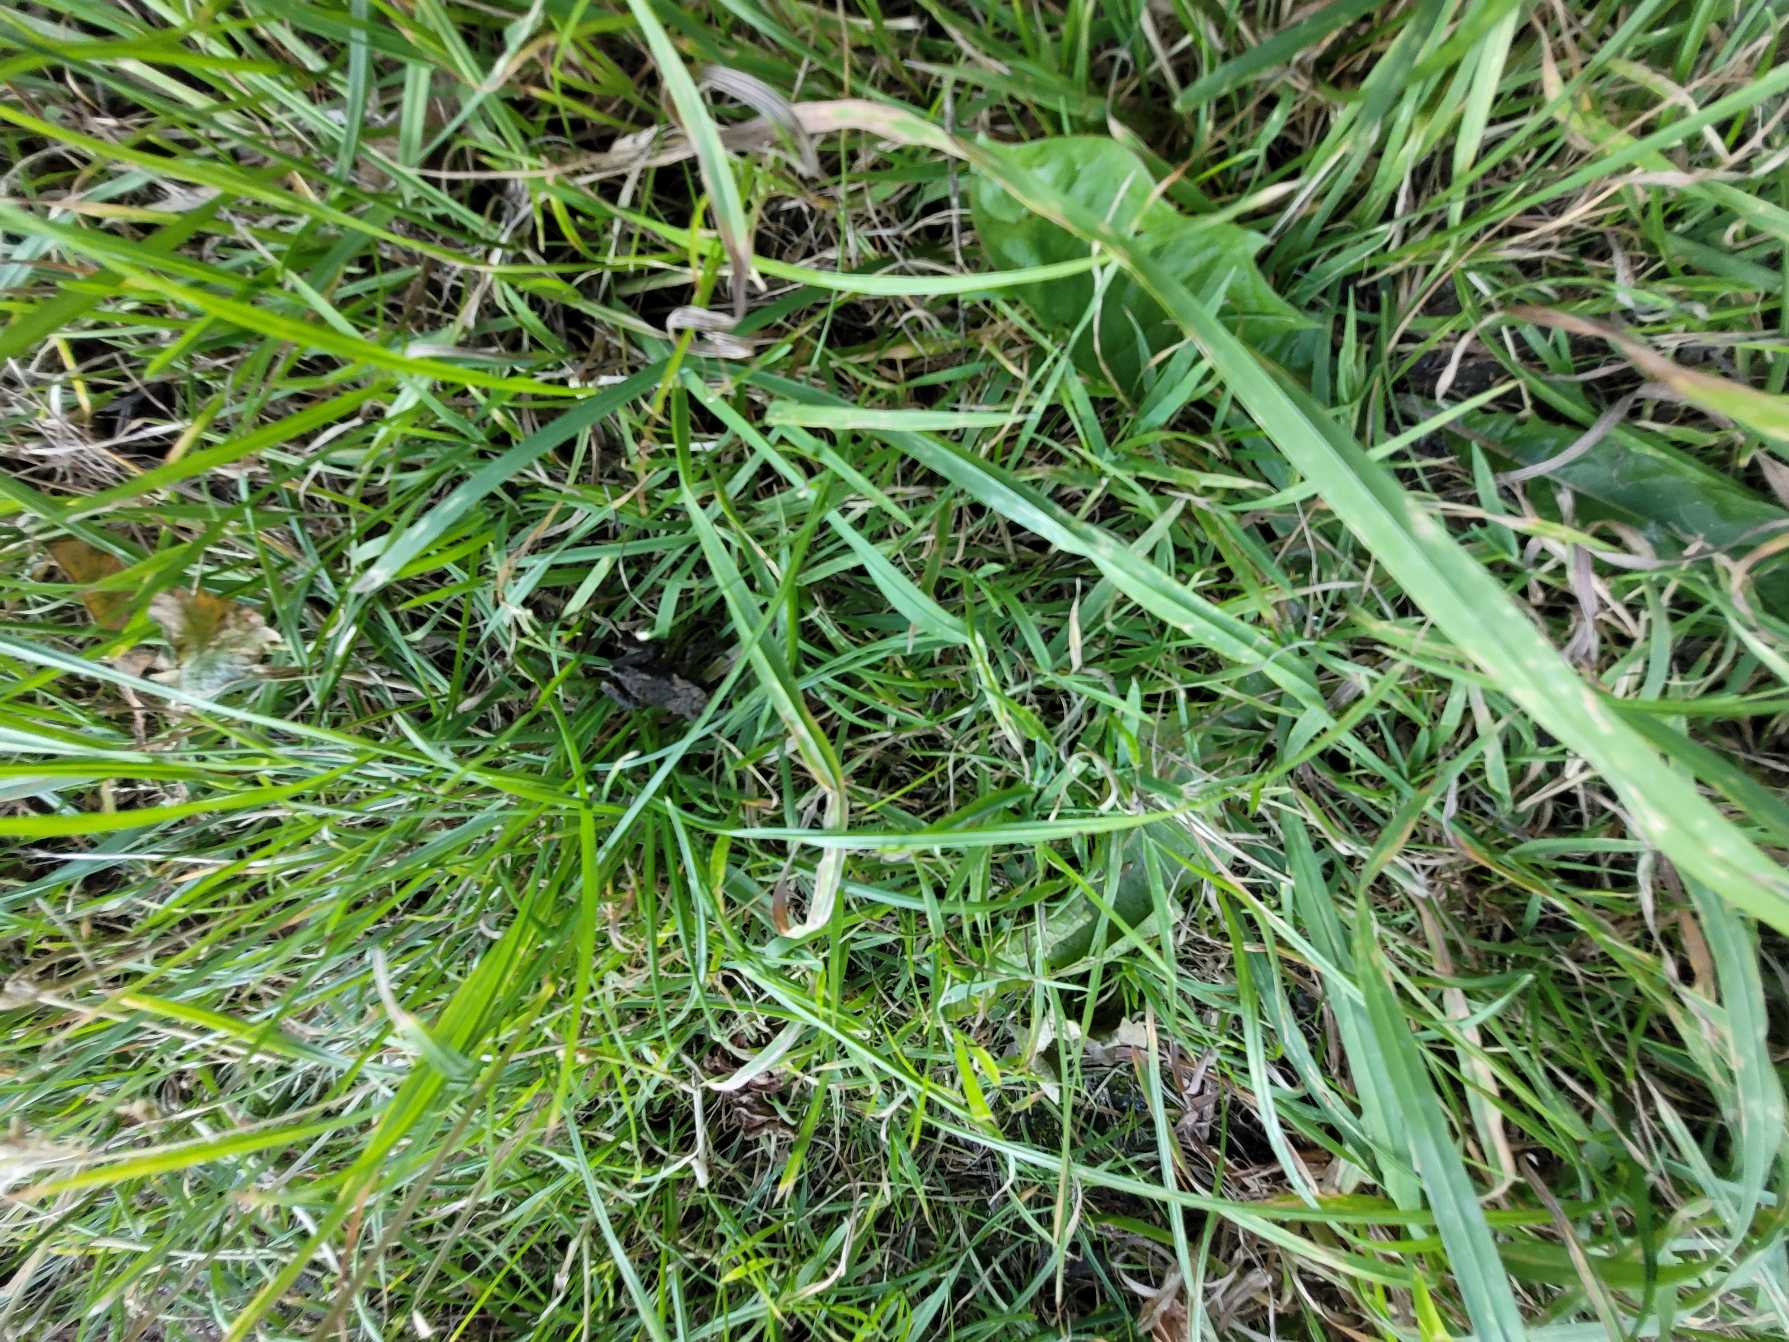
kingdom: Animalia
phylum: Chordata
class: Amphibia
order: Anura
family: Bufonidae
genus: Bufo
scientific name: Bufo bufo
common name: Skrubtudse
